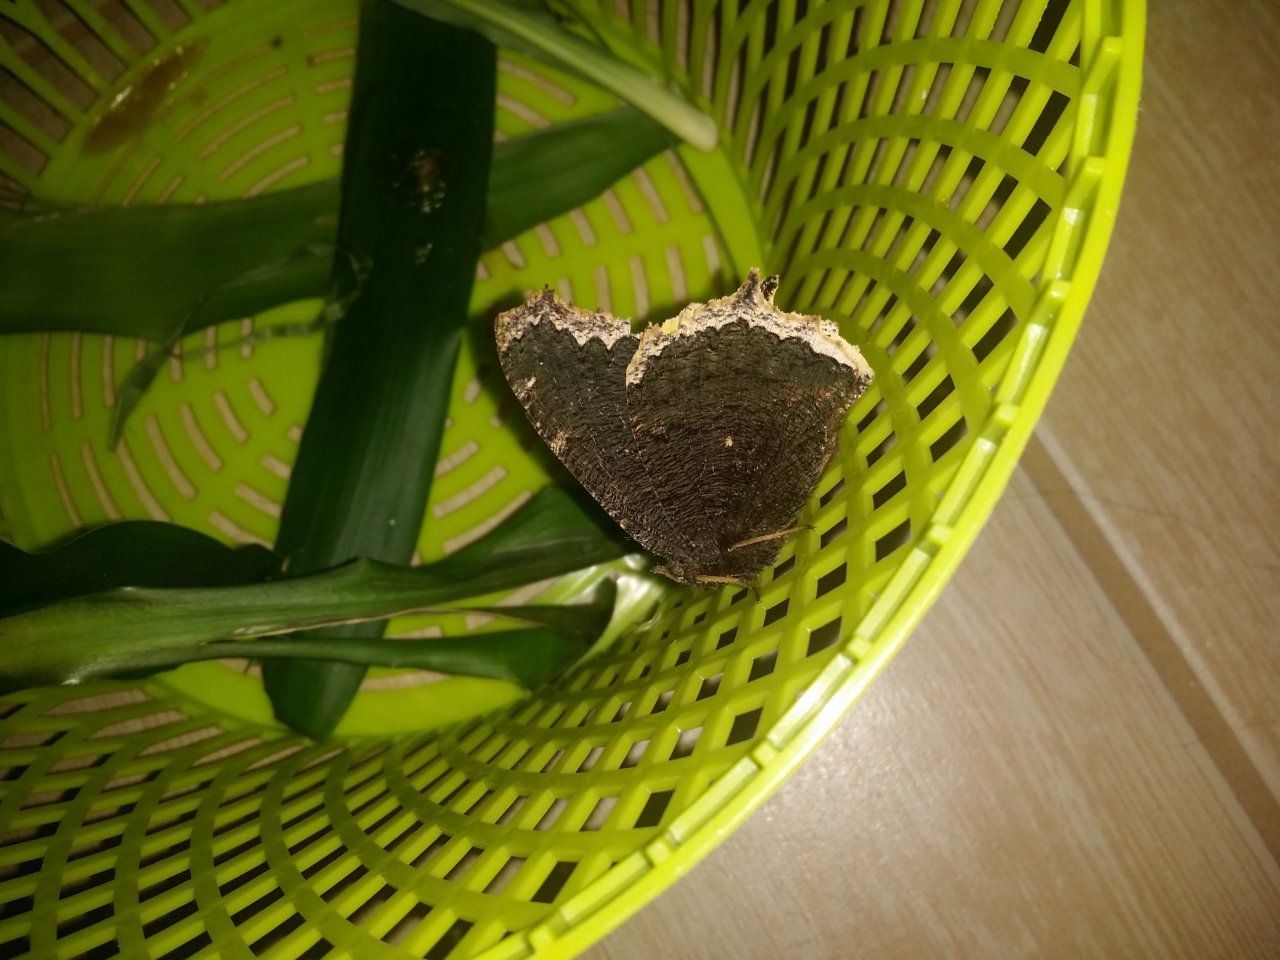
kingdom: Animalia
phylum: Arthropoda
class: Insecta
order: Lepidoptera
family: Nymphalidae
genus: Nymphalis
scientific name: Nymphalis antiopa
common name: Mourning Cloak
